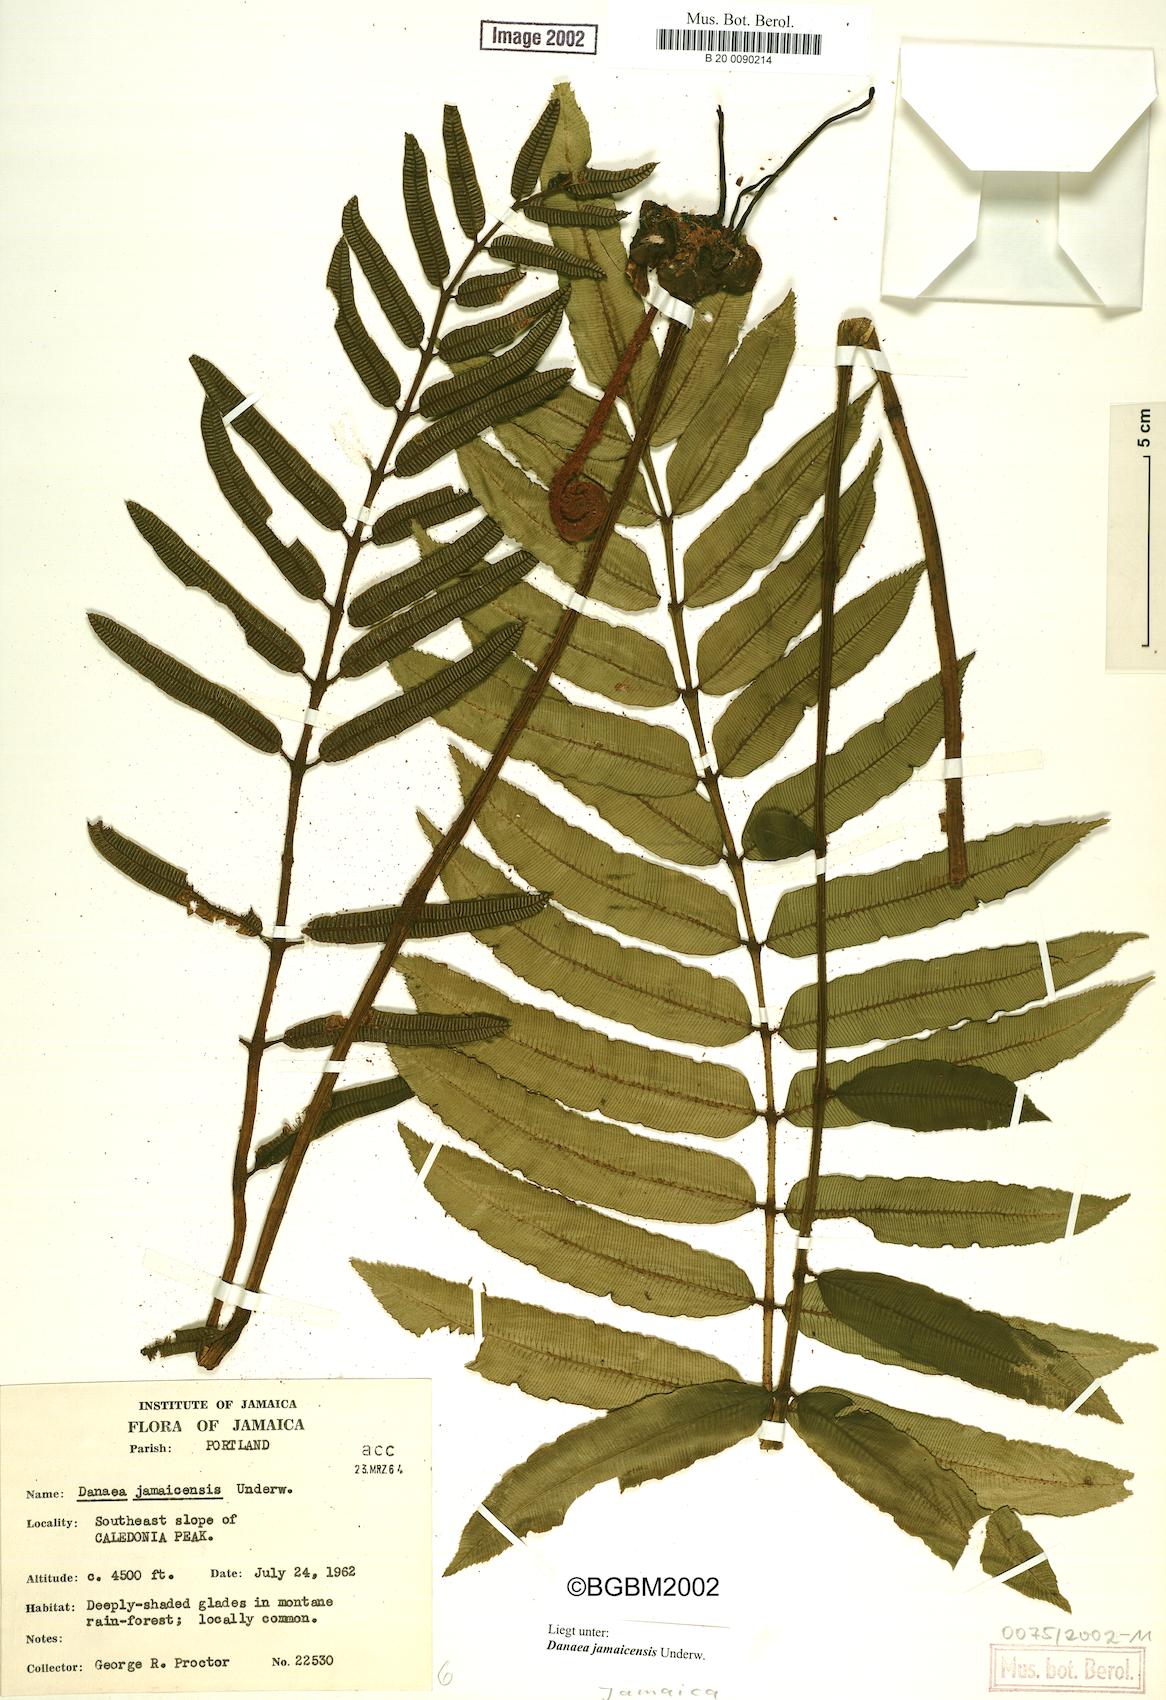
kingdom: Plantae
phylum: Tracheophyta
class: Polypodiopsida
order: Marattiales
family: Marattiaceae
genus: Danaea
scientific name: Danaea mazeana
